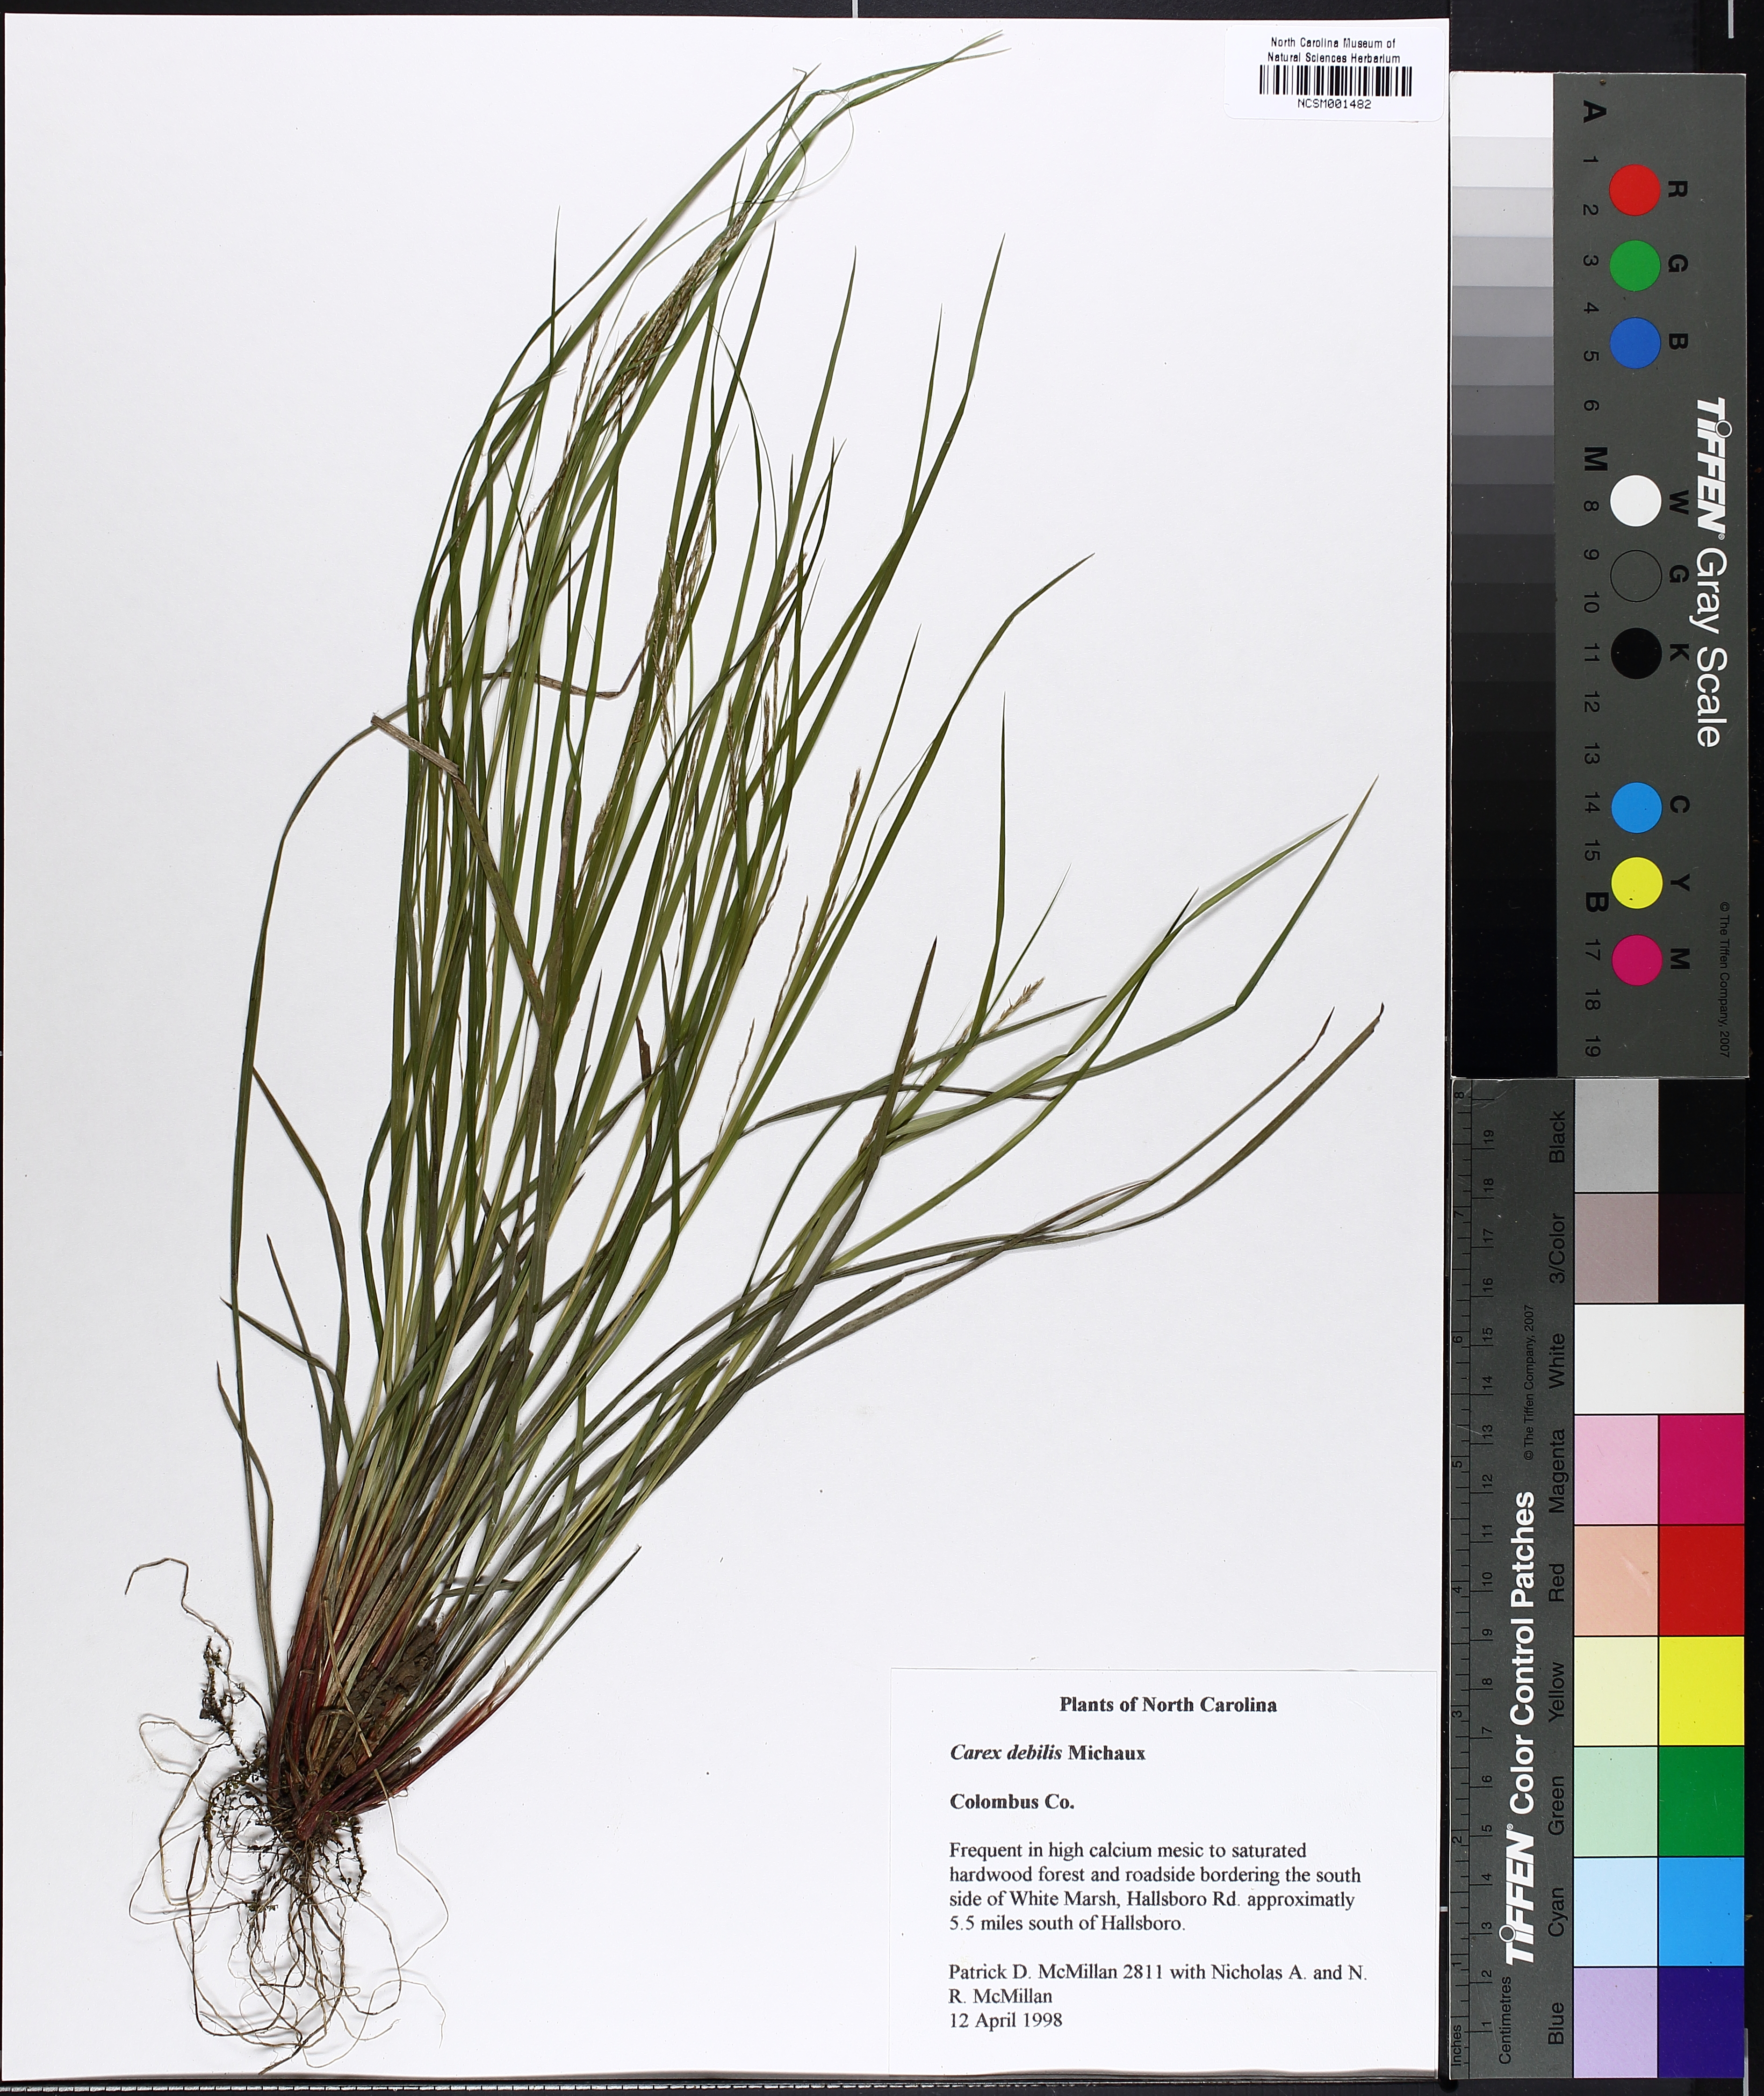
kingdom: Plantae
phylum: Tracheophyta
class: Liliopsida
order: Poales
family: Cyperaceae
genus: Carex
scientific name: Carex debilis
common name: White-edge sedge
